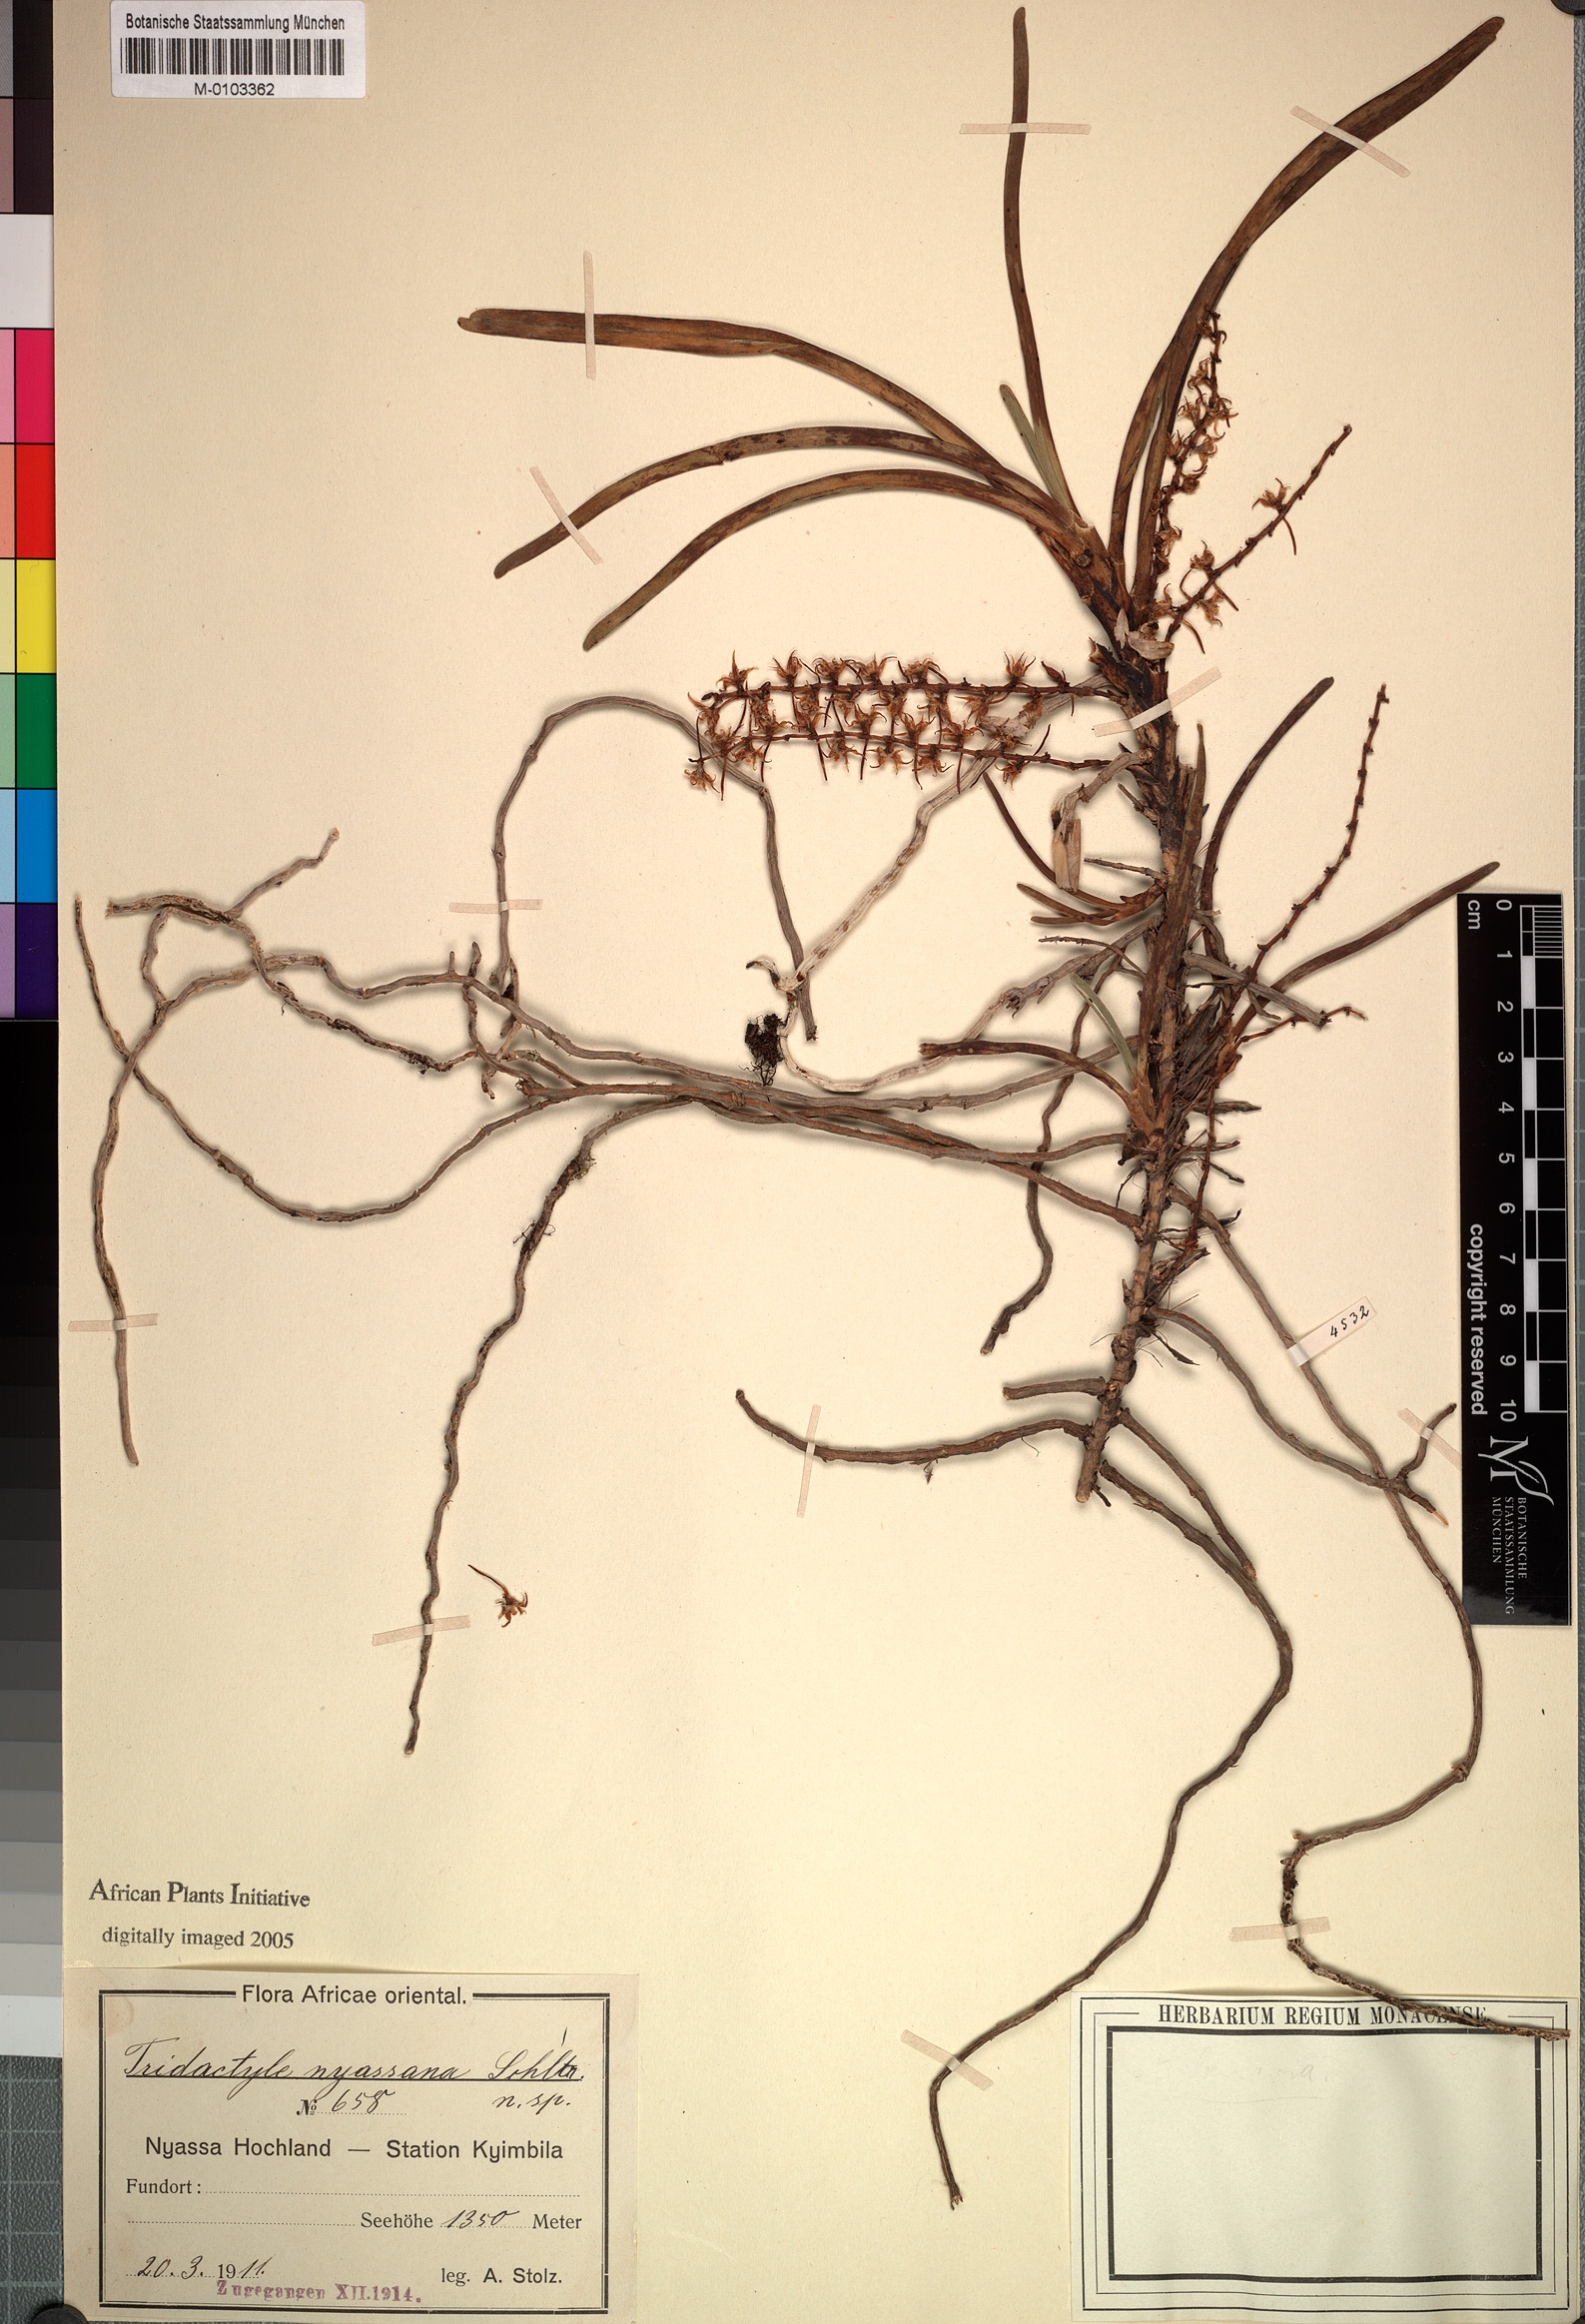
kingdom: Plantae
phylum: Tracheophyta
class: Liliopsida
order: Asparagales
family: Orchidaceae
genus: Tridactyle
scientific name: Tridactyle unguiculata
